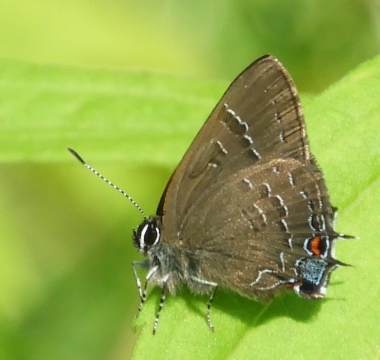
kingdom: Animalia
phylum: Arthropoda
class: Insecta
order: Lepidoptera
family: Lycaenidae
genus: Satyrium
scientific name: Satyrium calanus
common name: Banded Hairstreak
